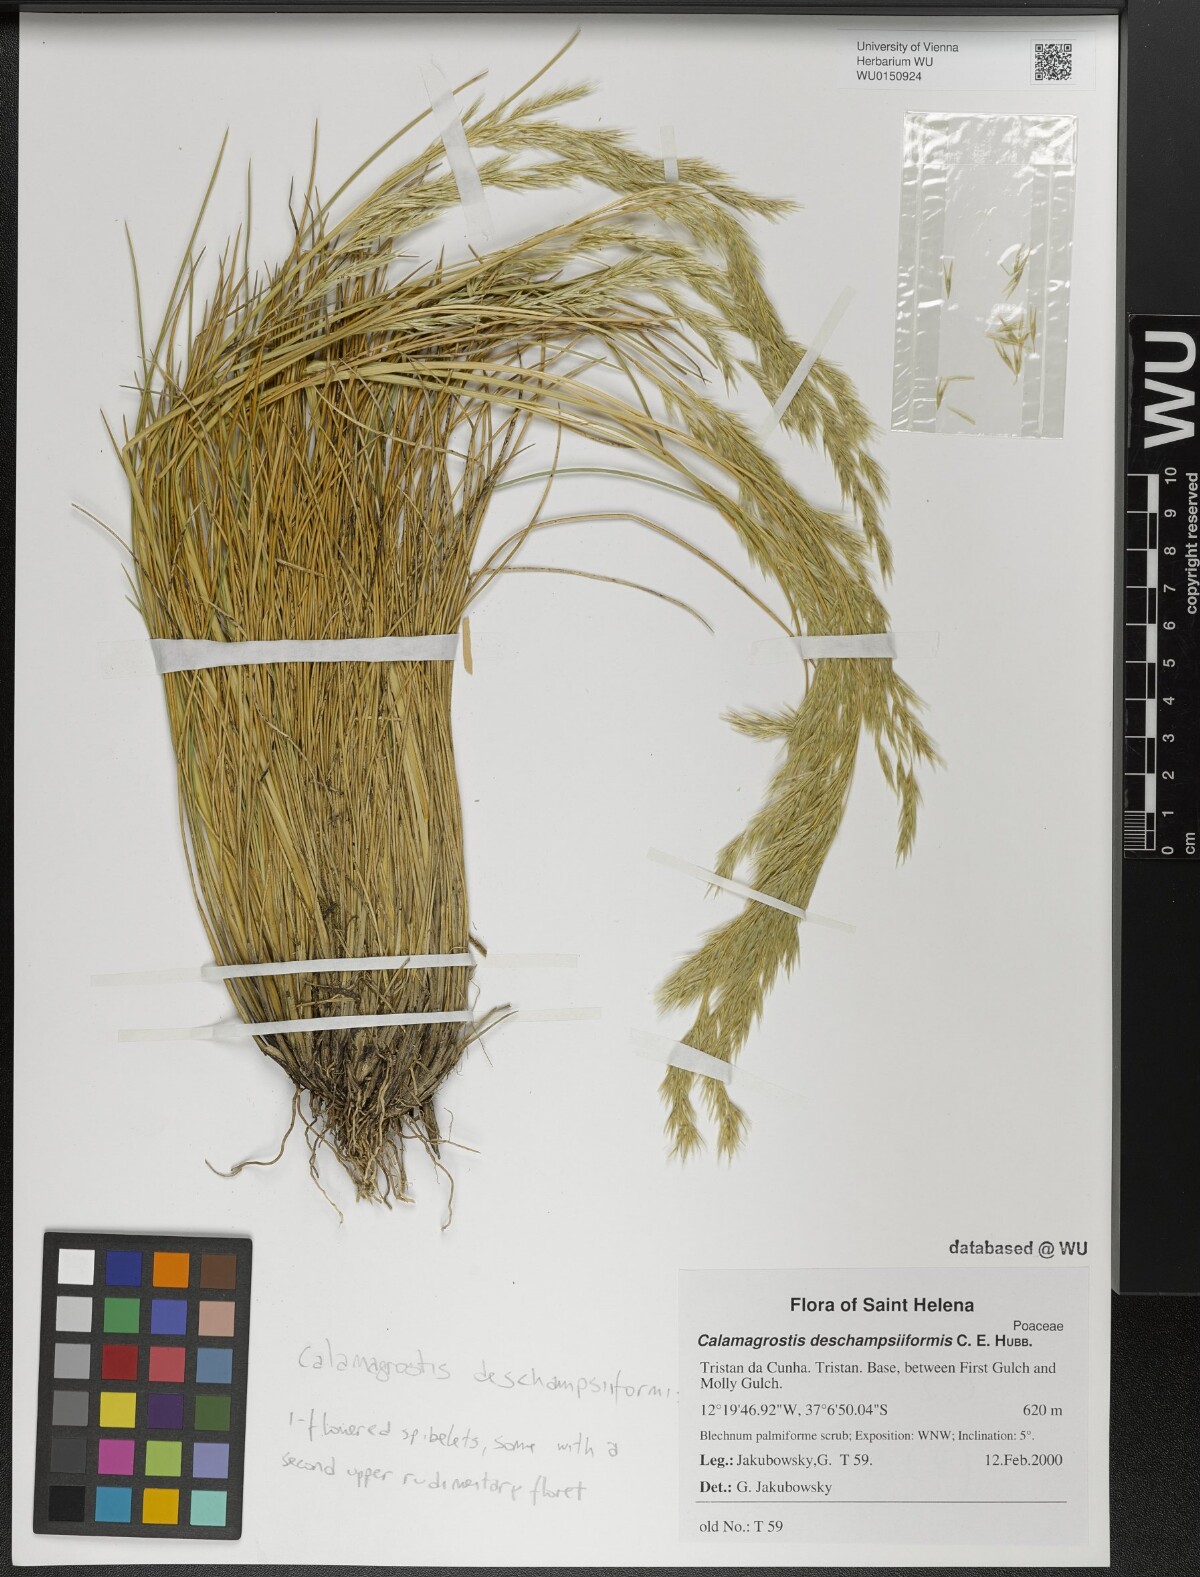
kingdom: Plantae
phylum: Tracheophyta
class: Liliopsida
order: Poales
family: Poaceae
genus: Calamagrostis
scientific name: Calamagrostis deschampsiiformis
